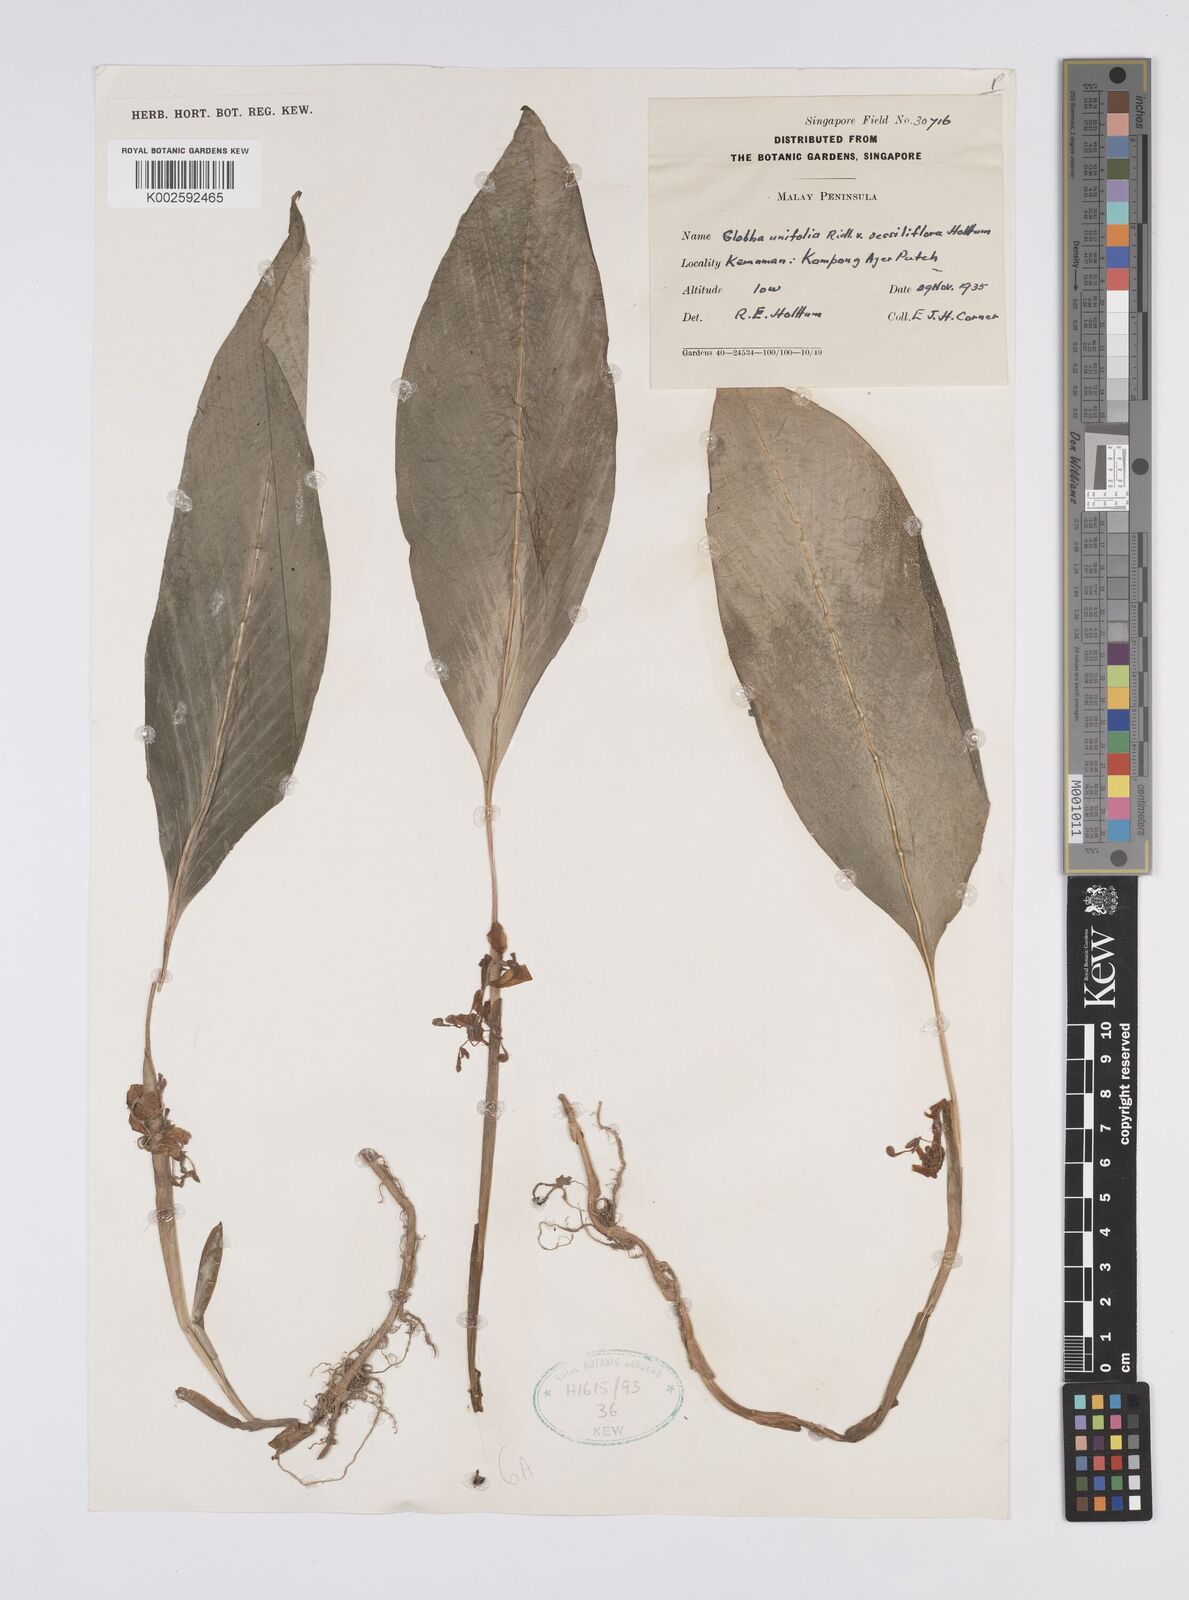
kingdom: Plantae
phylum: Tracheophyta
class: Liliopsida
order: Zingiberales
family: Zingiberaceae
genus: Globba
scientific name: Globba unifolia
